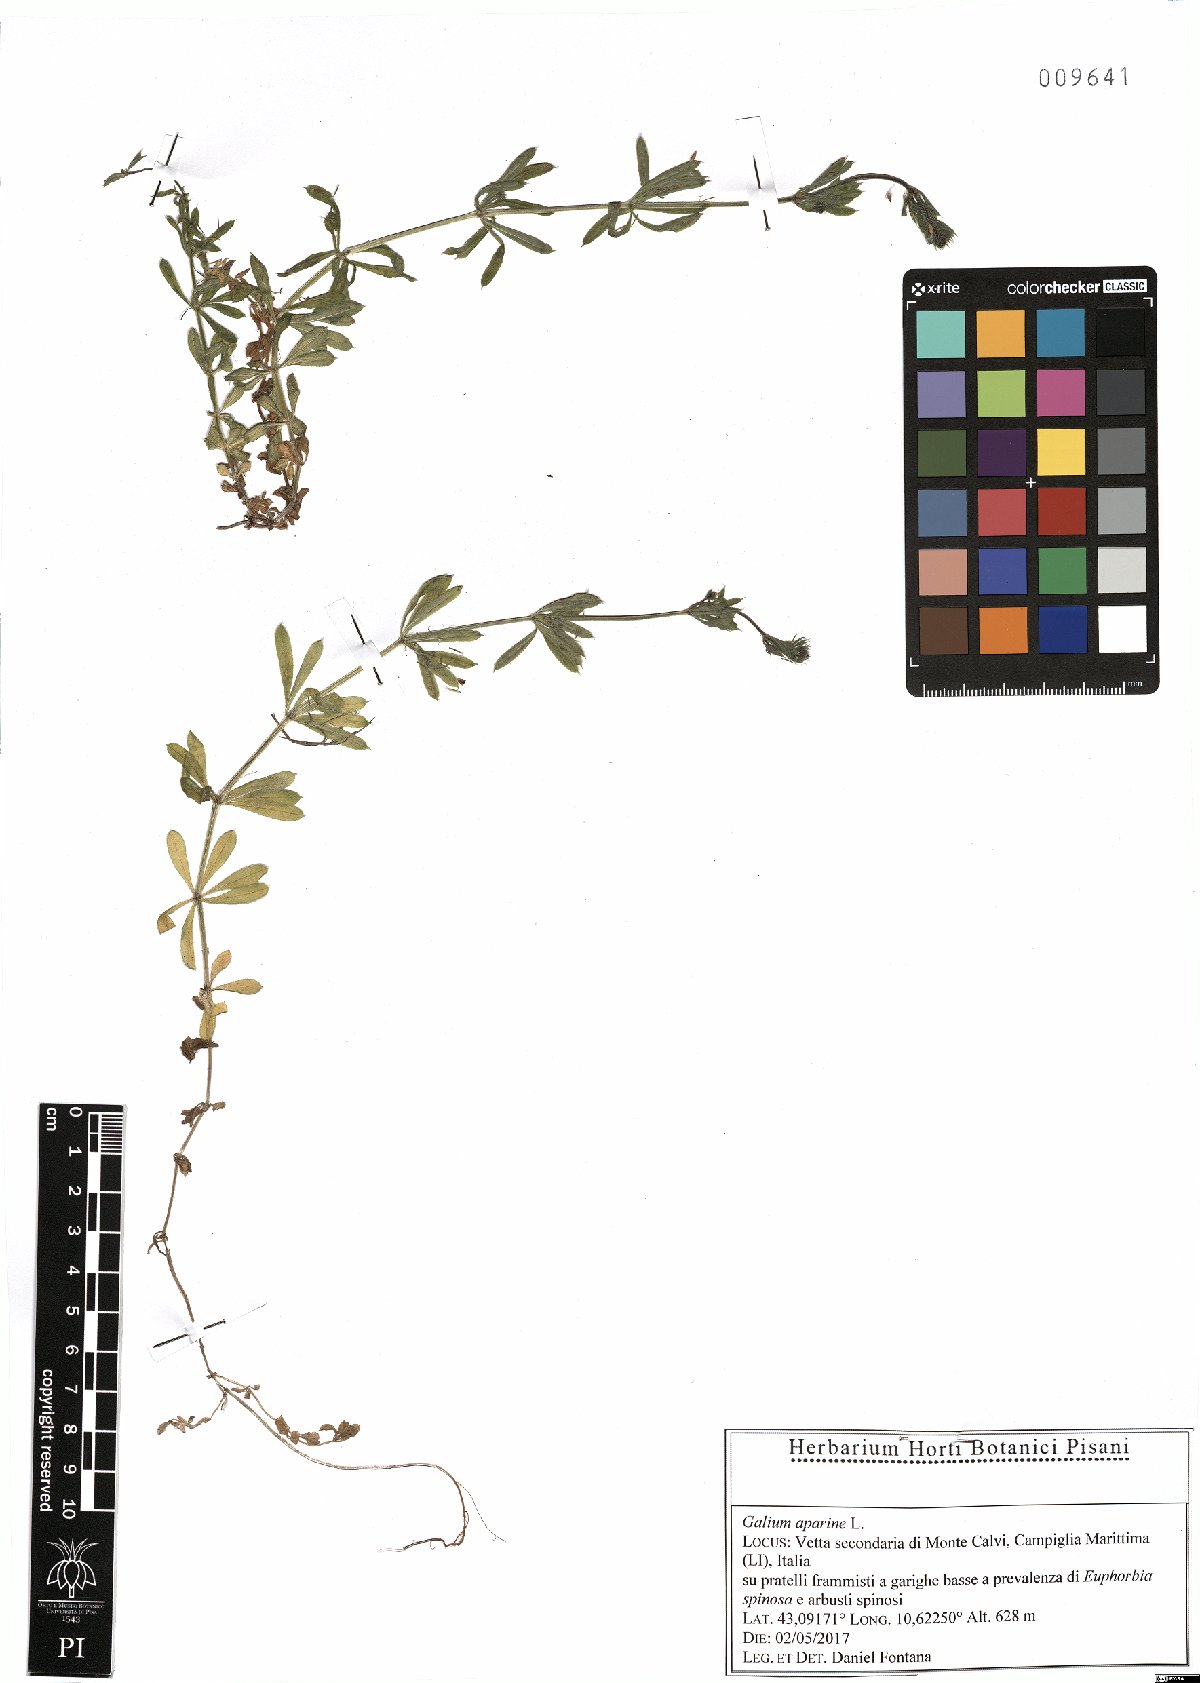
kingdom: Plantae
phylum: Tracheophyta
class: Magnoliopsida
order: Gentianales
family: Rubiaceae
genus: Galium
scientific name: Galium aparine
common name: Cleavers
